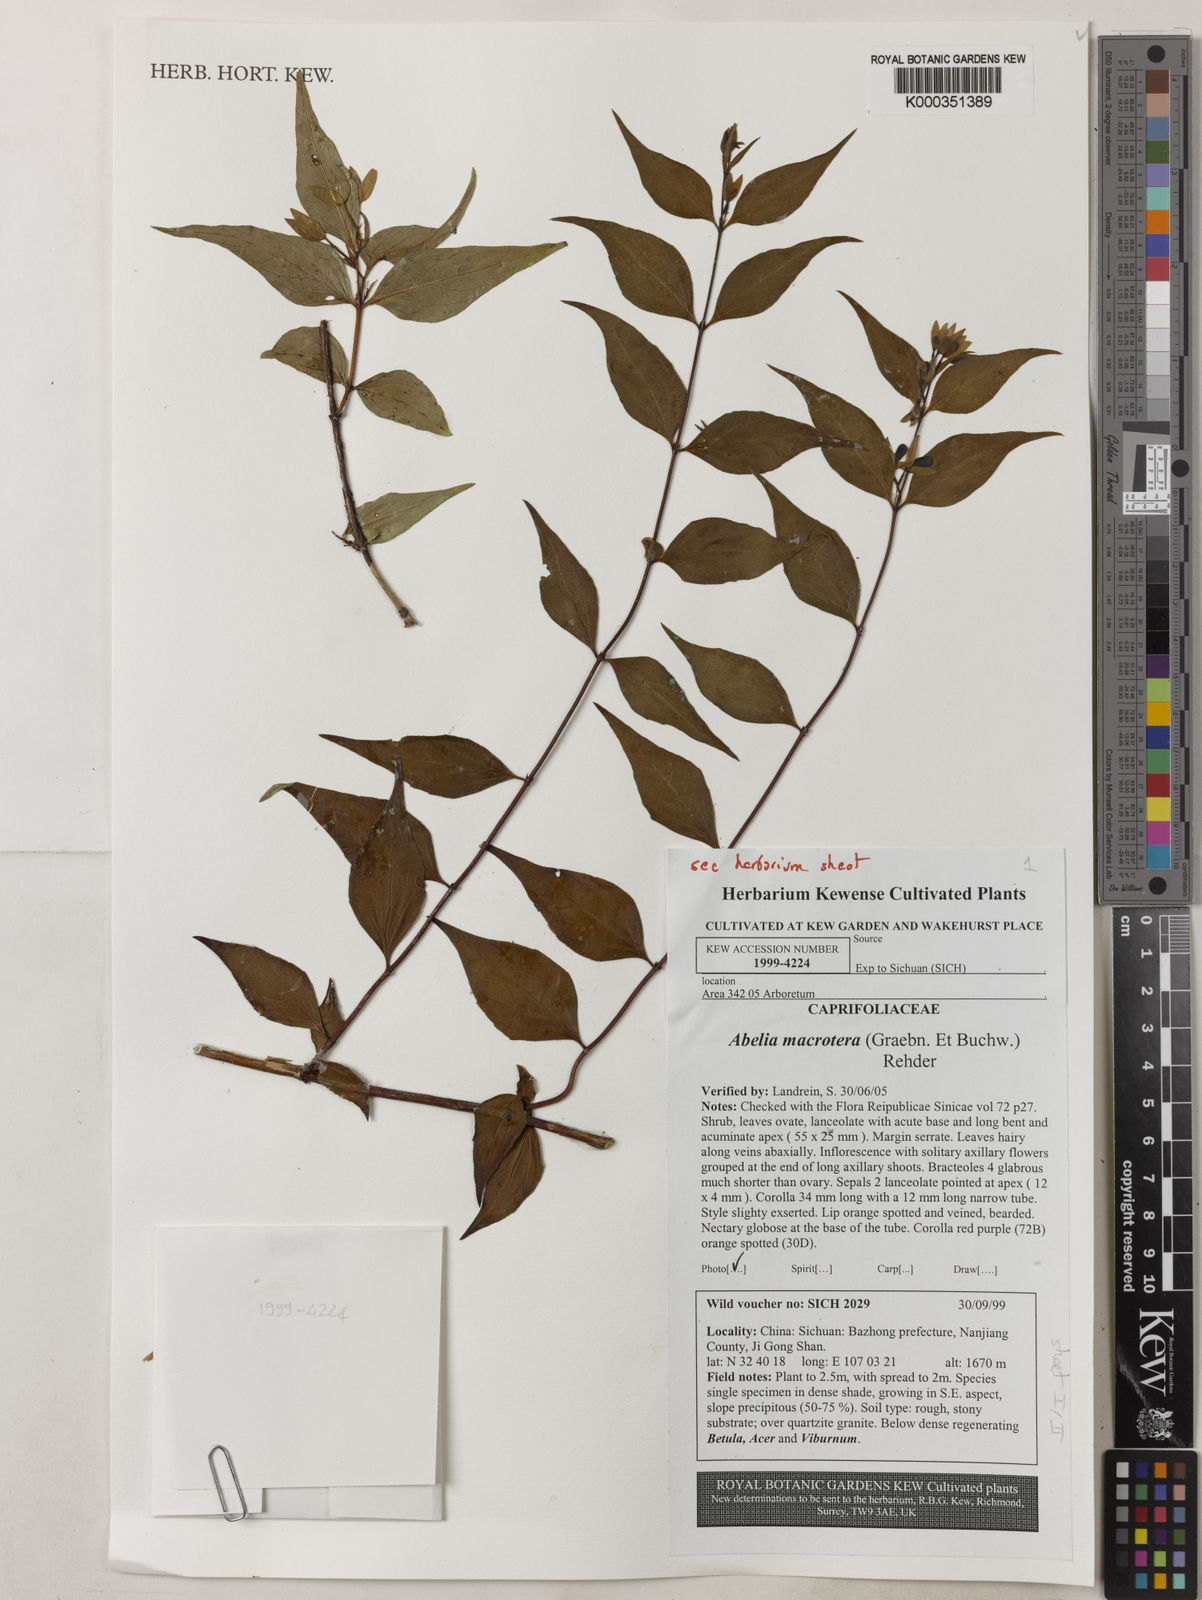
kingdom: Plantae
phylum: Tracheophyta
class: Magnoliopsida
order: Dipsacales
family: Caprifoliaceae
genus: Abelia
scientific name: Abelia macrotera
